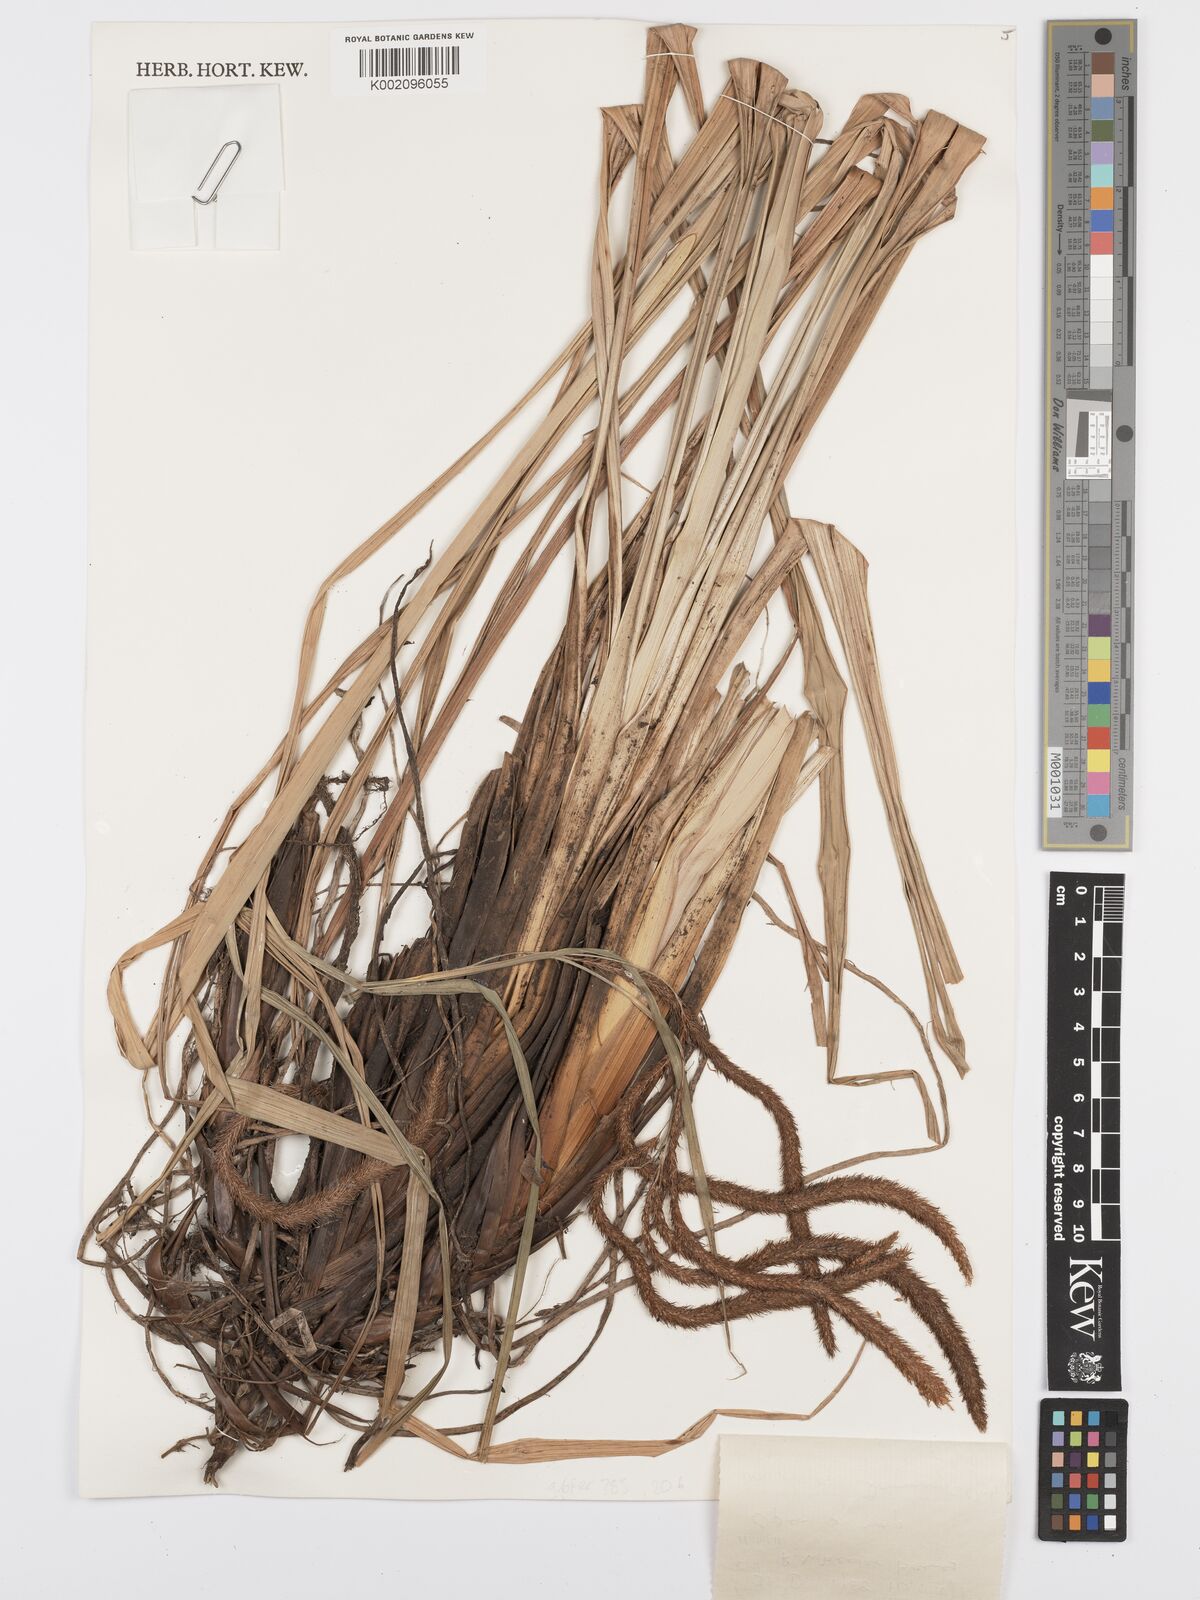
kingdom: Plantae
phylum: Tracheophyta
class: Liliopsida
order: Poales
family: Cyperaceae
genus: Carex
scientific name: Carex bequaertii
